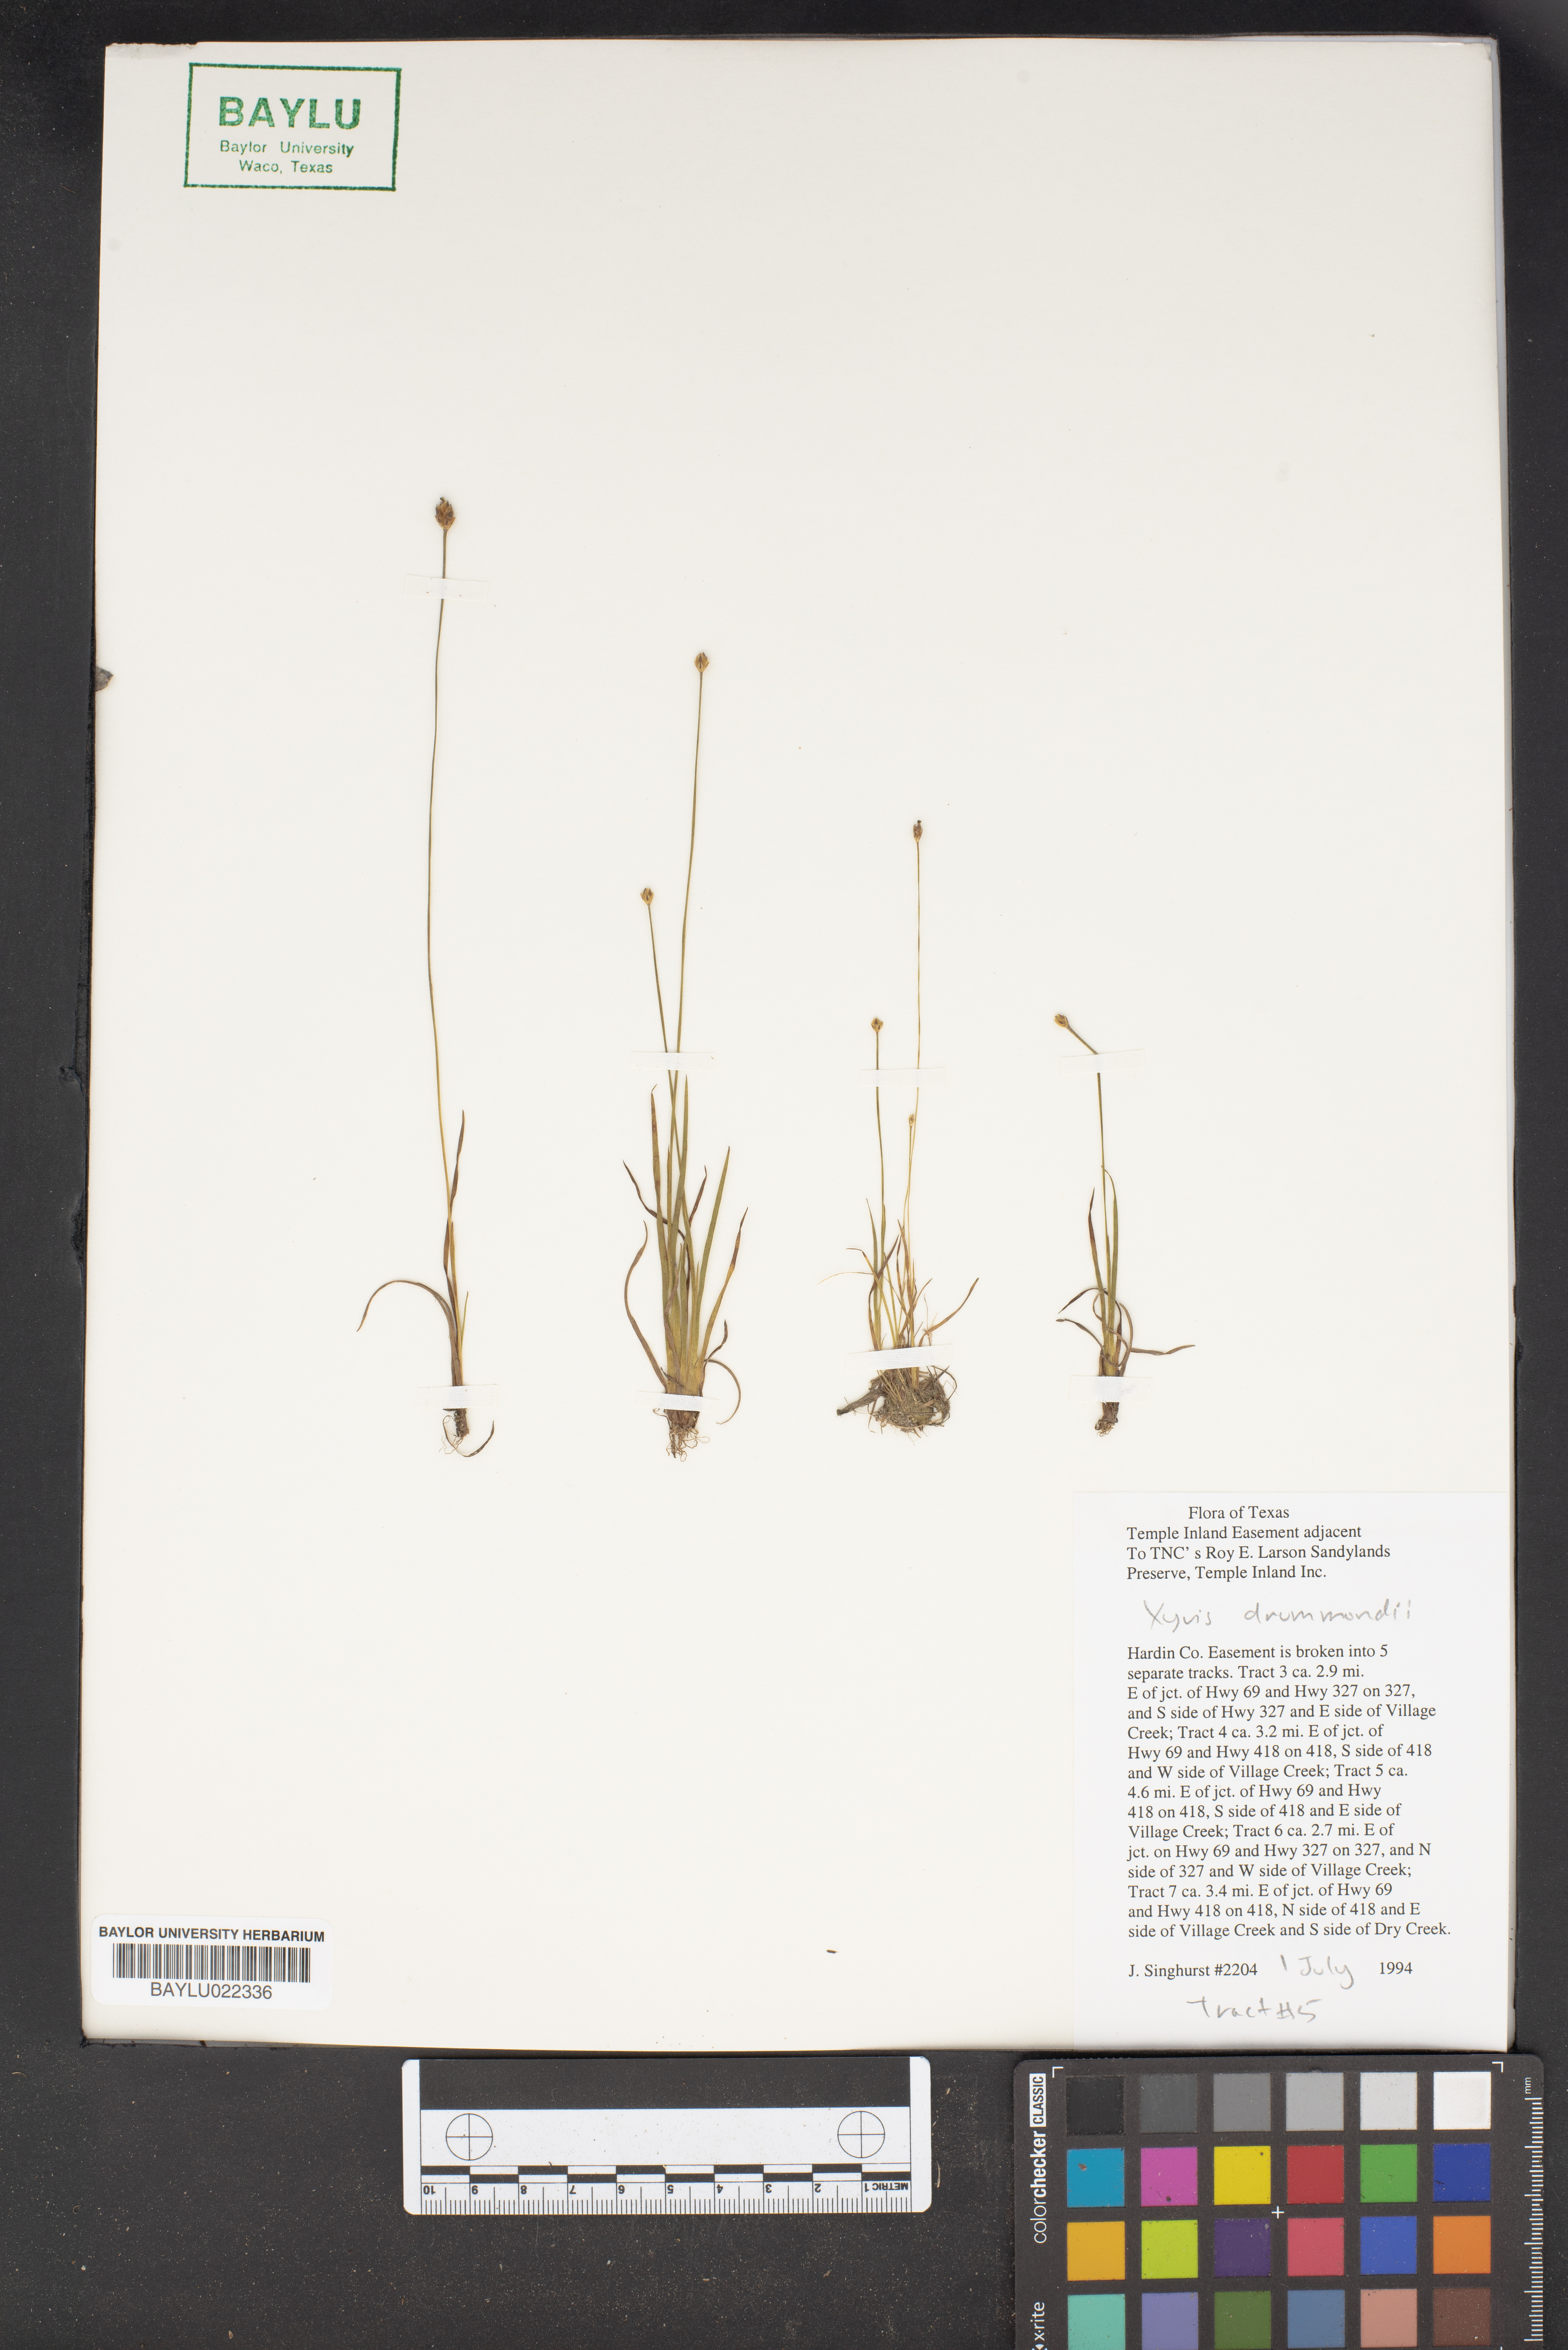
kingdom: Plantae
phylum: Tracheophyta
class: Liliopsida
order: Poales
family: Xyridaceae
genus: Xyris
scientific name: Xyris drummondii
